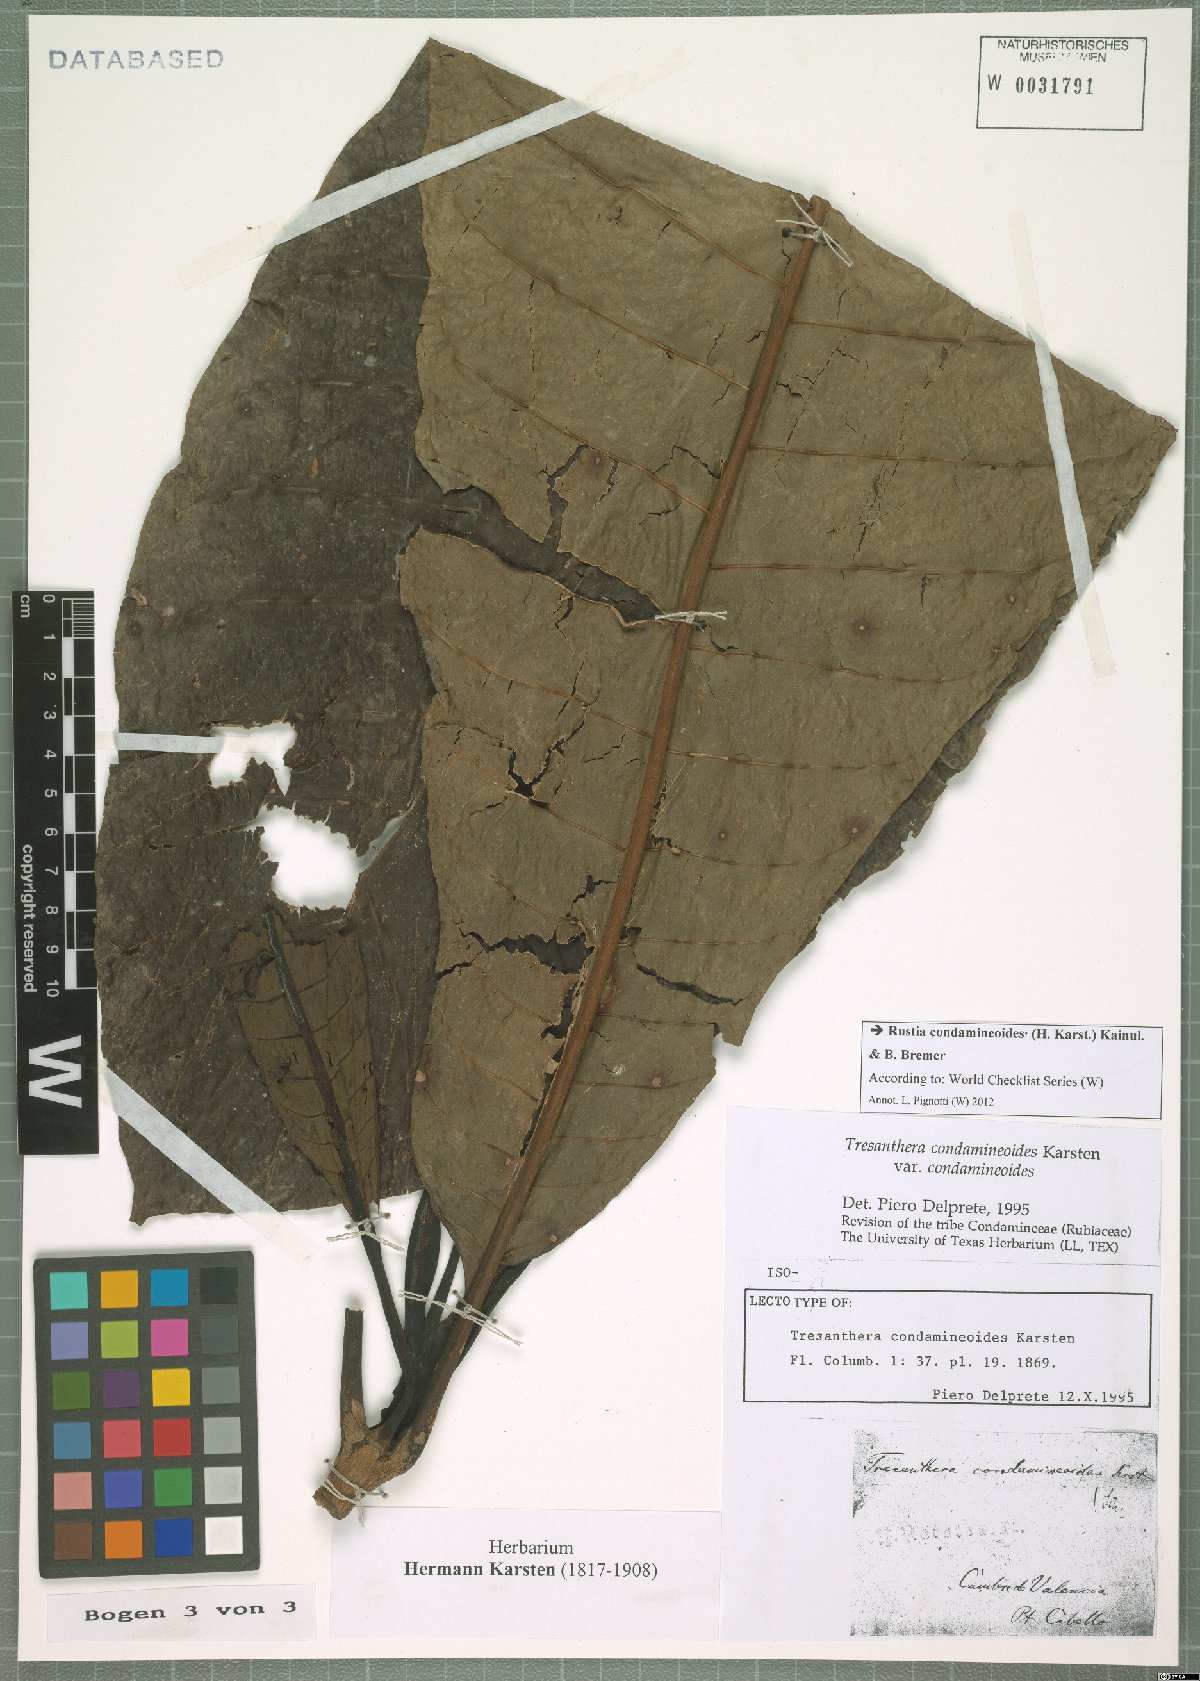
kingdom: Plantae
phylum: Tracheophyta
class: Magnoliopsida
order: Gentianales
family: Rubiaceae
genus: Rustia
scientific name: Rustia condamineoides
